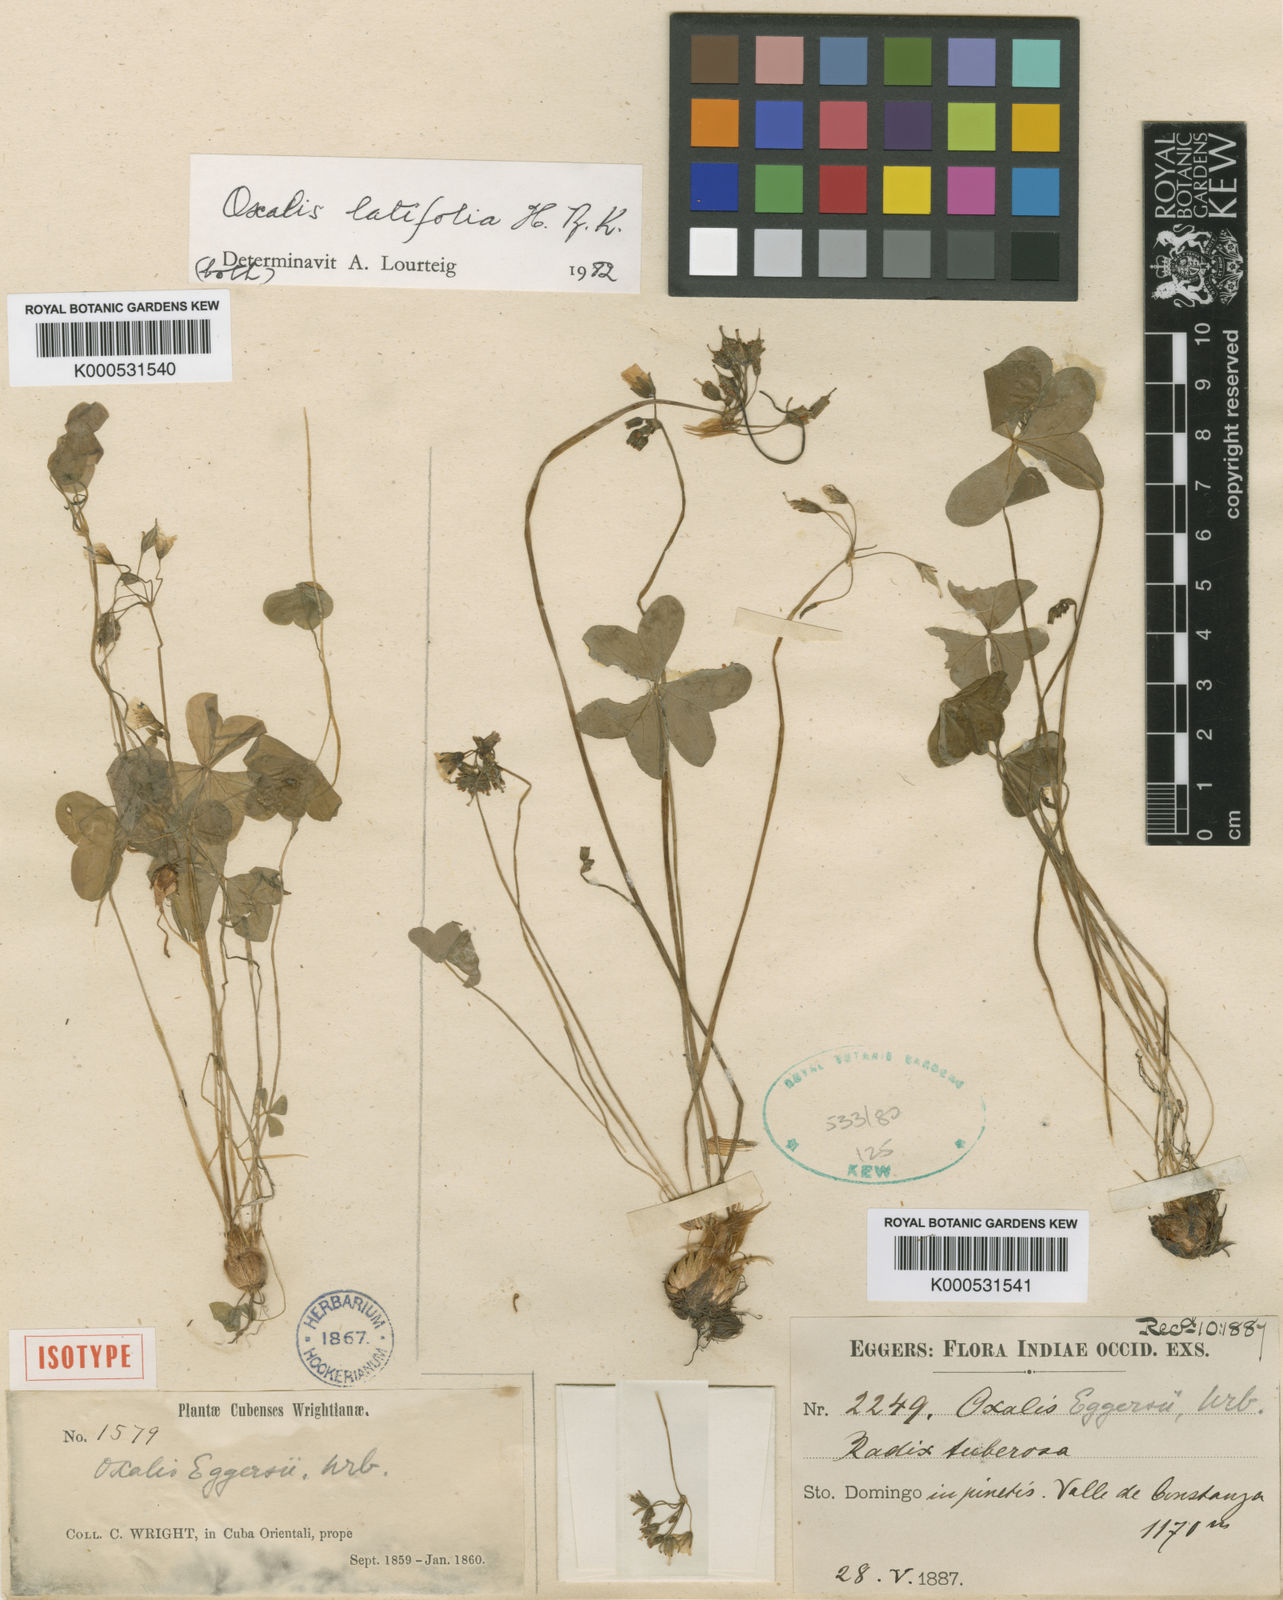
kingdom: Plantae
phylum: Tracheophyta
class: Magnoliopsida
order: Oxalidales
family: Oxalidaceae
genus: Oxalis
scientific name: Oxalis latifolia
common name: Garden pink-sorrel
